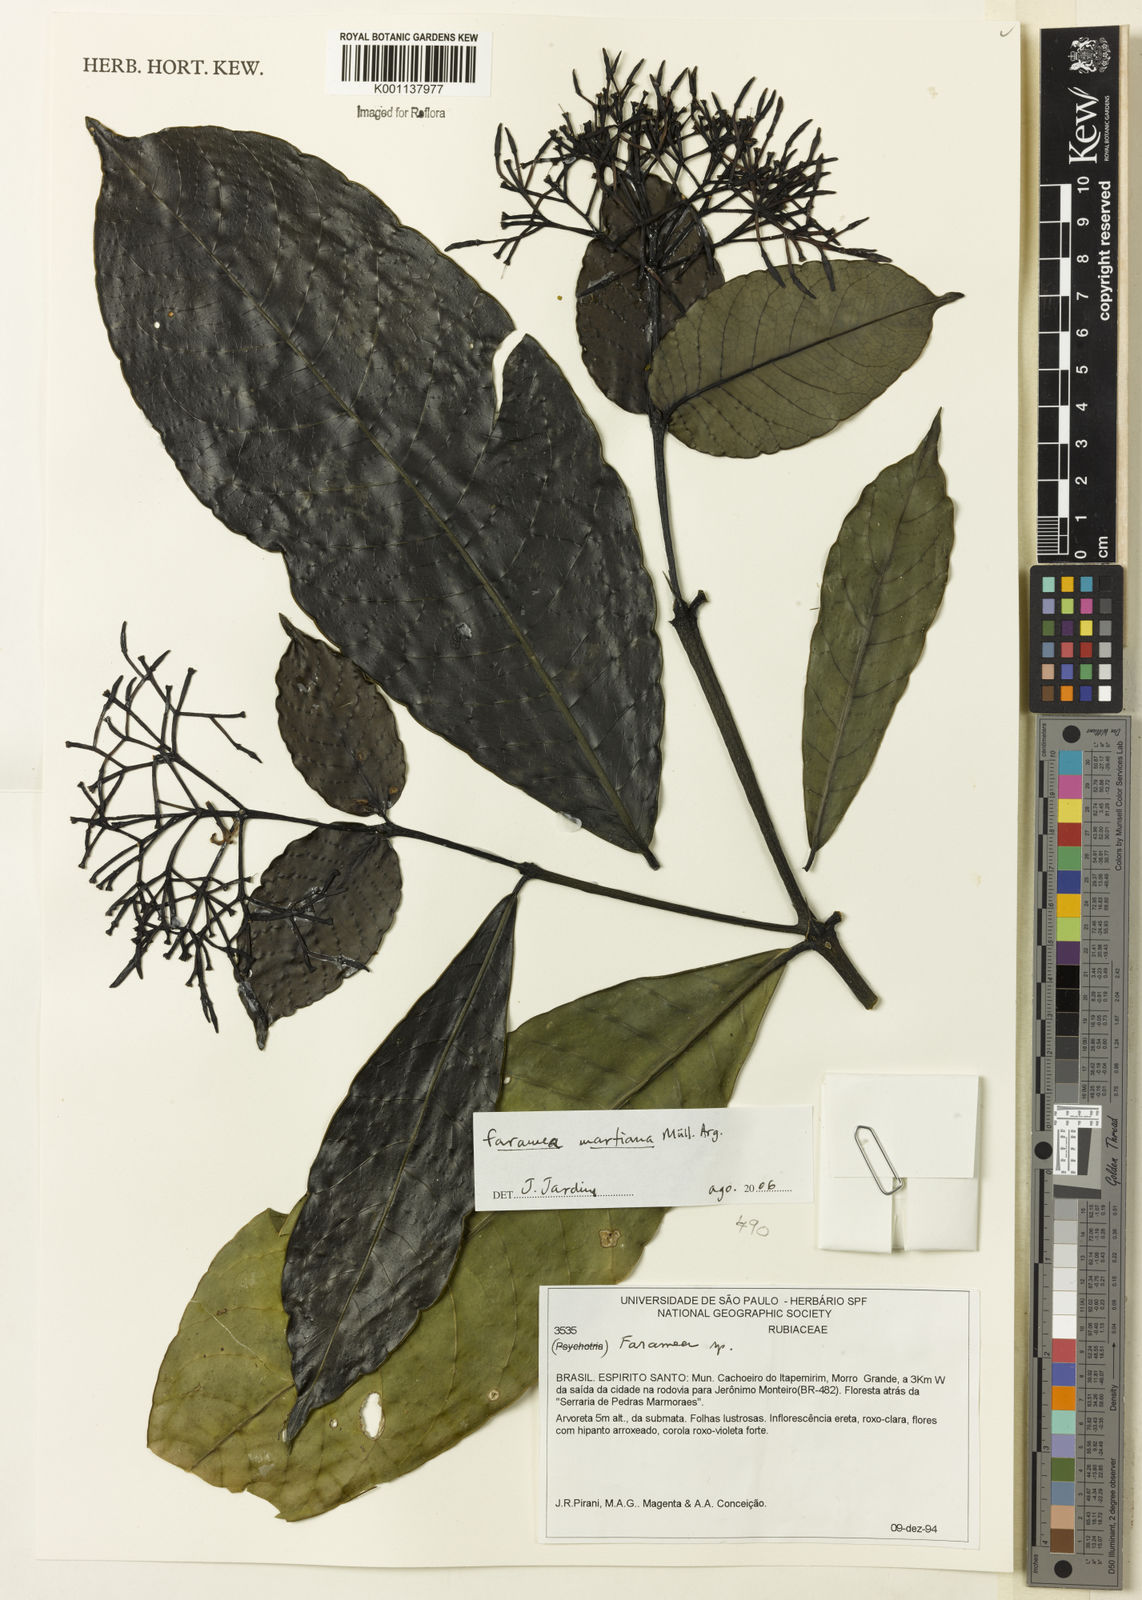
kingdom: Plantae
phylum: Tracheophyta
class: Magnoliopsida
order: Gentianales
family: Rubiaceae
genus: Faramea
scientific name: Faramea
